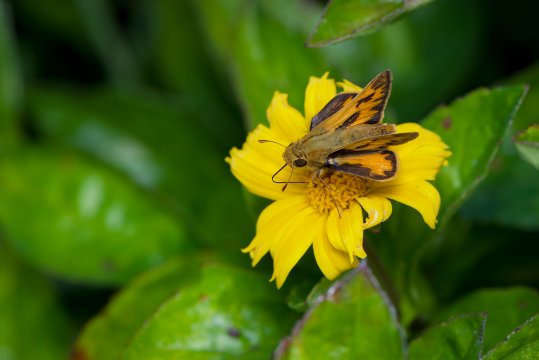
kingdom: Animalia
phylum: Arthropoda
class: Insecta
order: Lepidoptera
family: Hesperiidae
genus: Hylephila
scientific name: Hylephila phyleus
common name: Fiery Skipper
